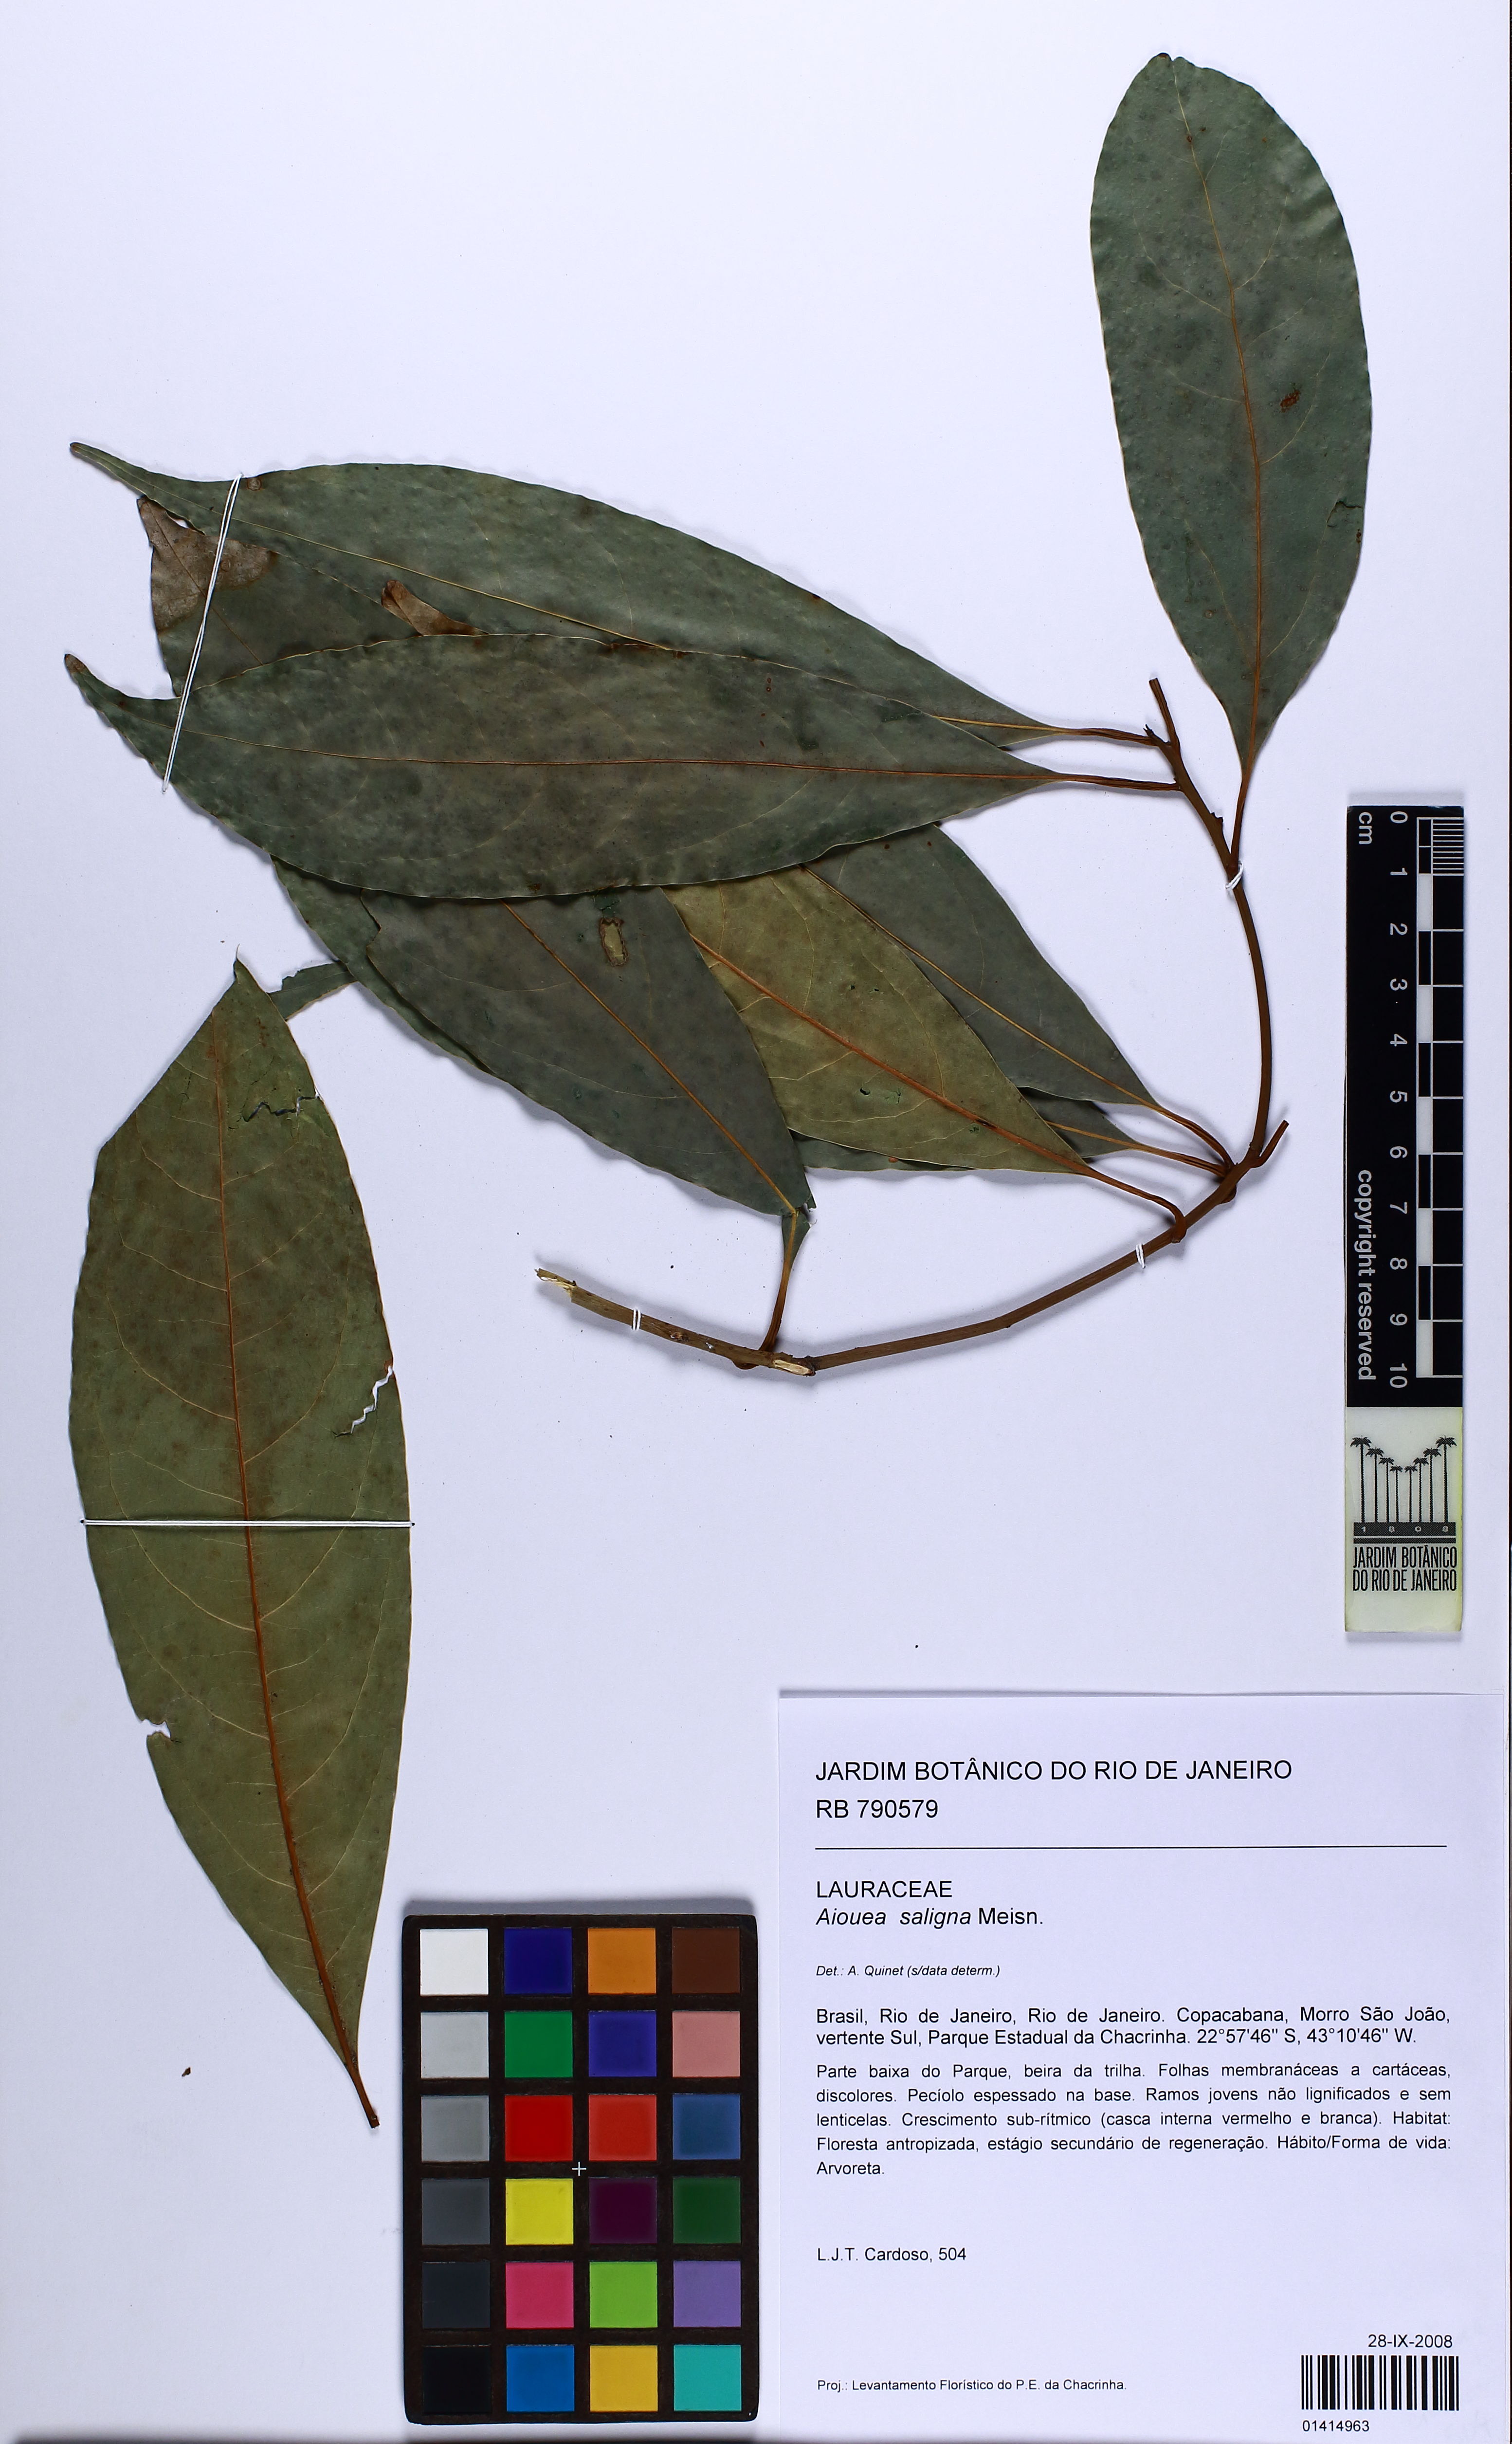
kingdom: Plantae
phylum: Tracheophyta
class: Magnoliopsida
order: Laurales
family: Lauraceae
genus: Aiouea
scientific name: Aiouea saligna
